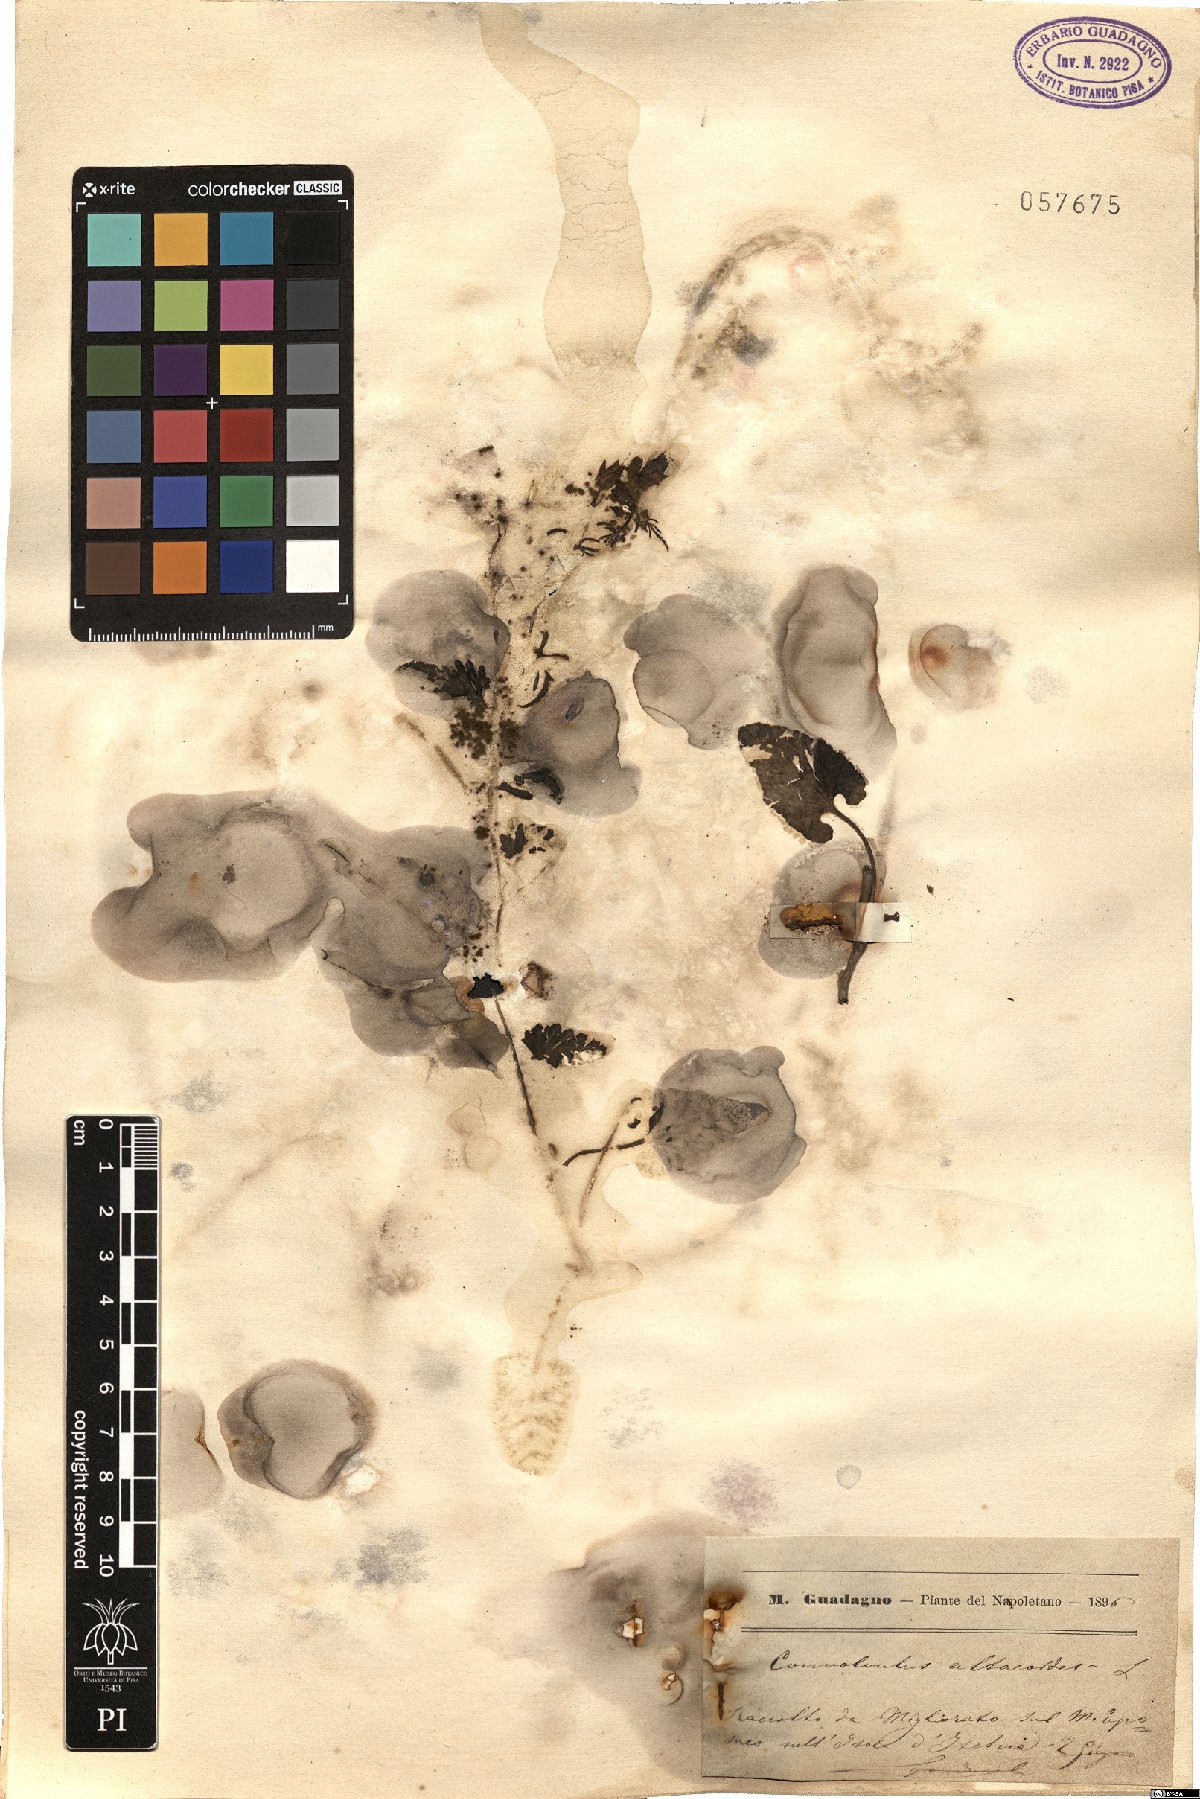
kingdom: Plantae
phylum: Tracheophyta
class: Magnoliopsida
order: Solanales
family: Convolvulaceae
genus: Convolvulus
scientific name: Convolvulus althaeoides
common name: Mallow bindweed
